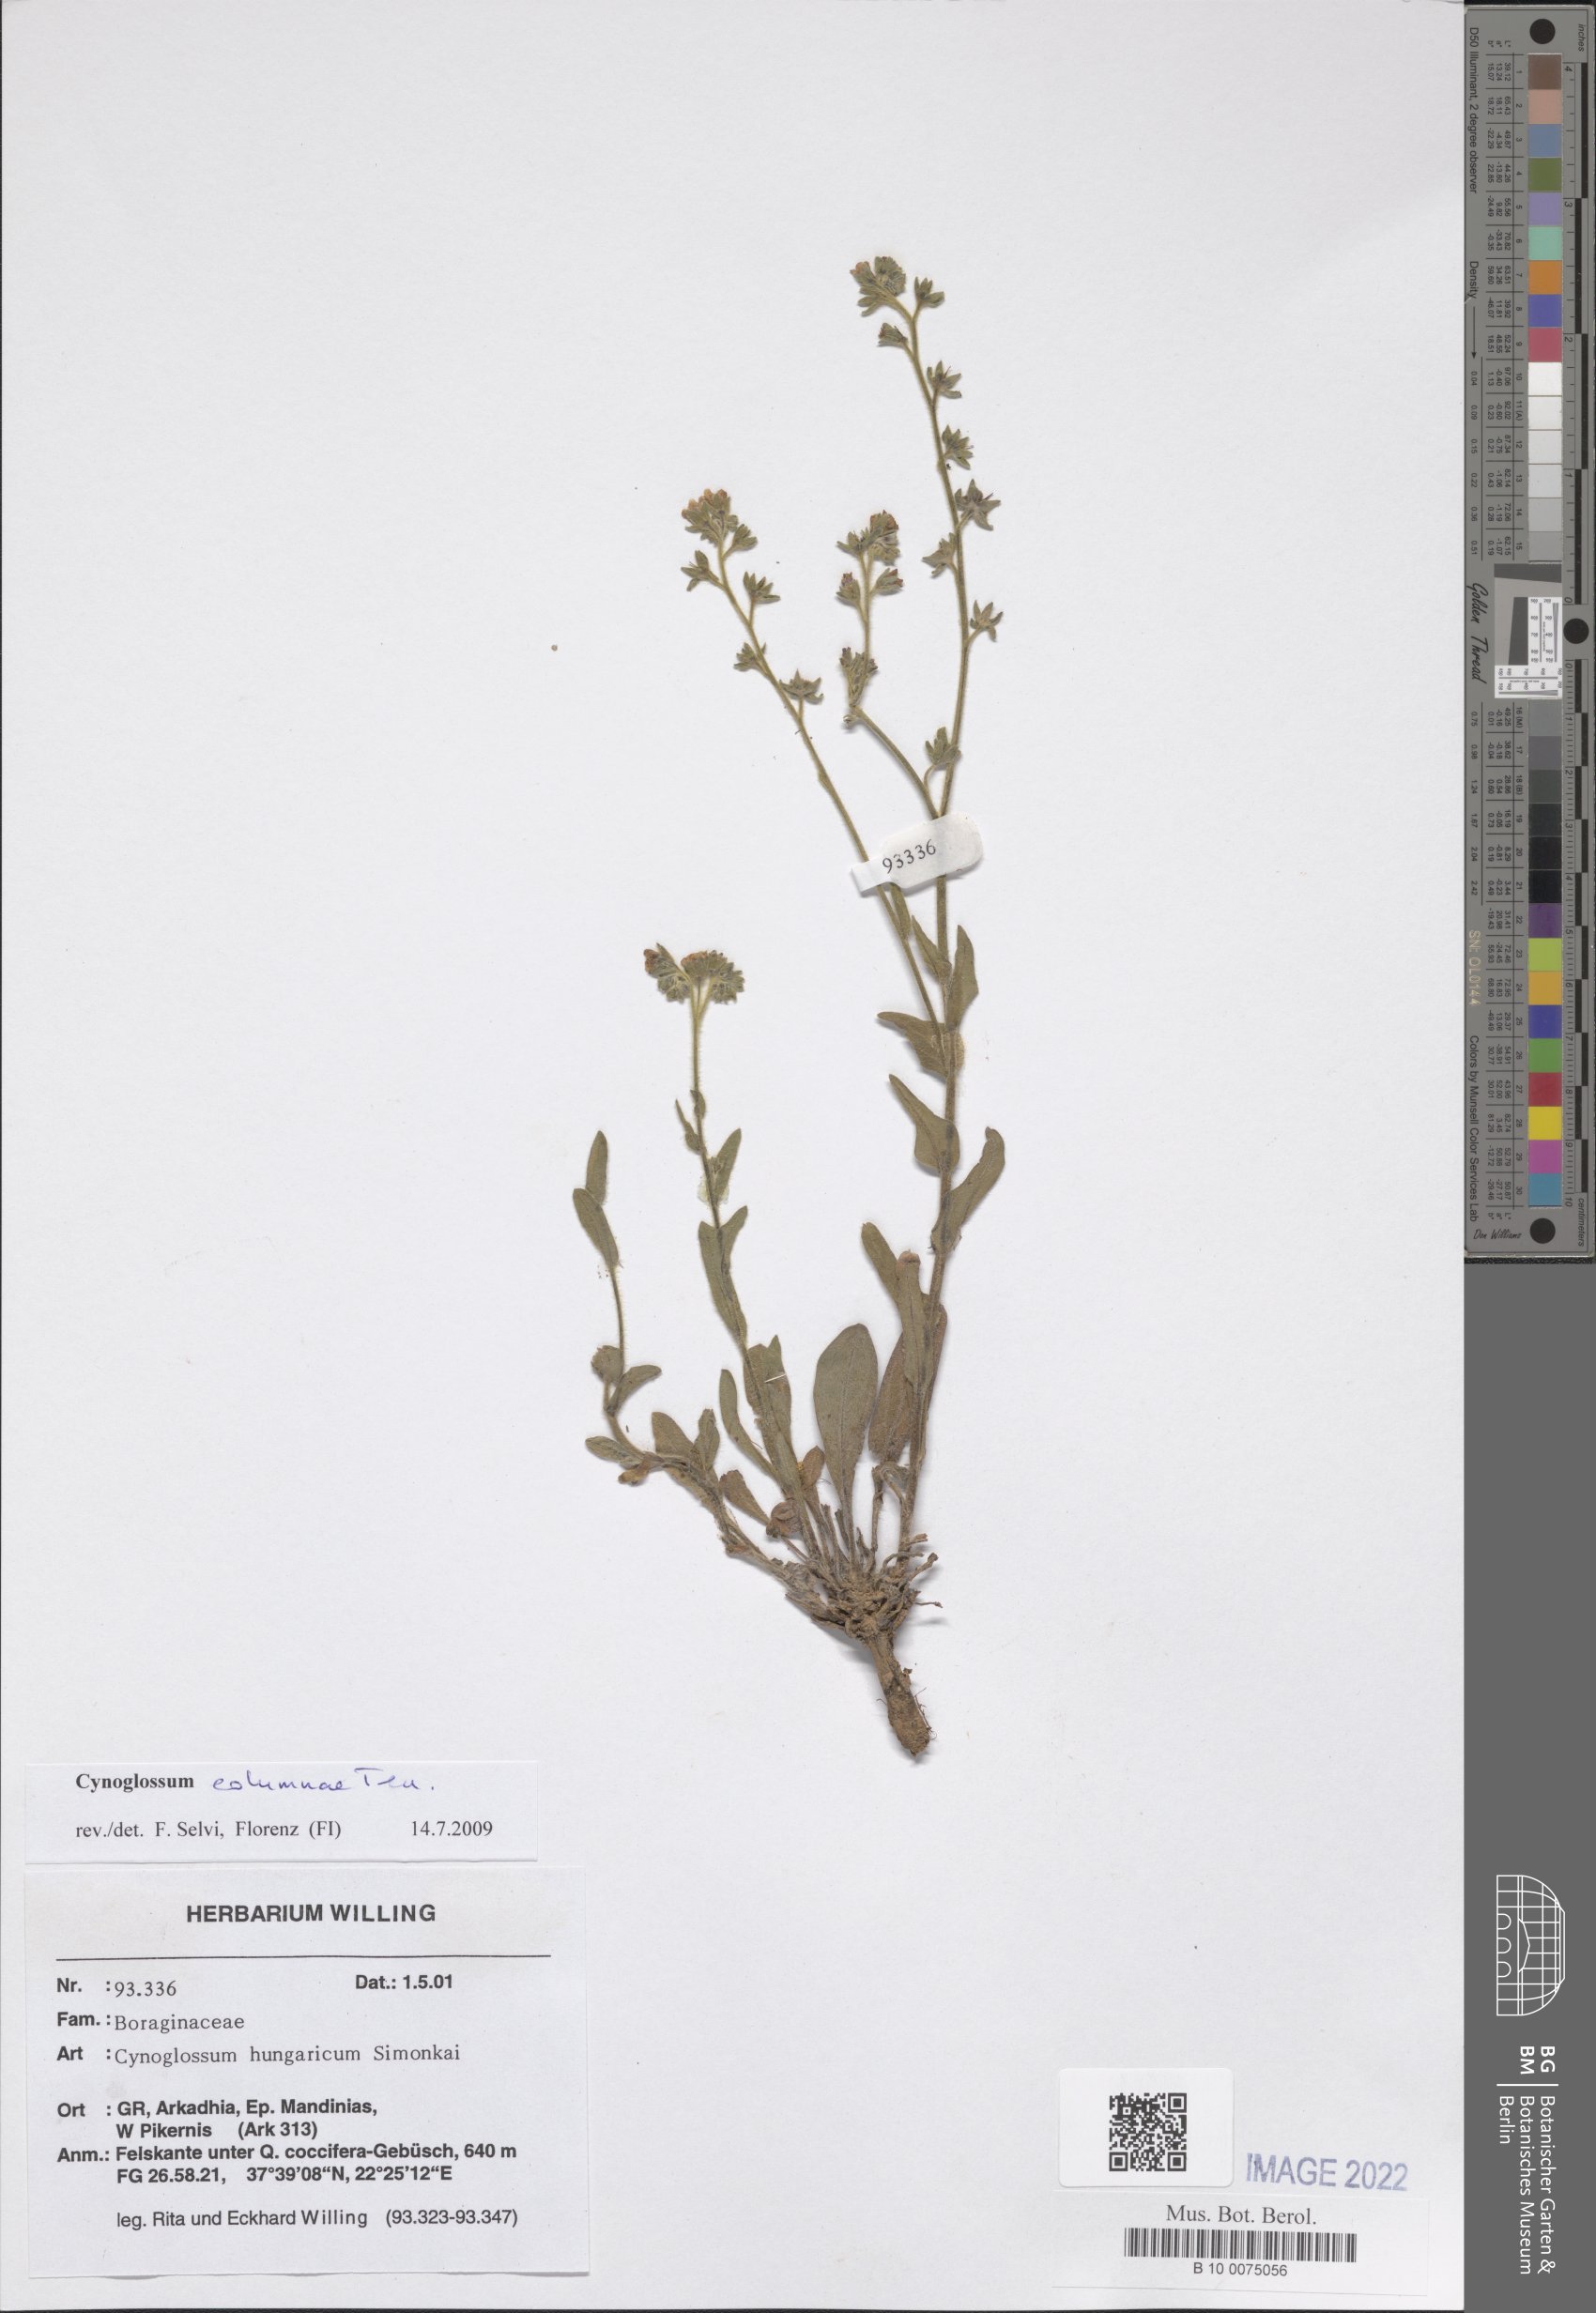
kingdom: Plantae
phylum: Tracheophyta
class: Magnoliopsida
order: Boraginales
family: Boraginaceae
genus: Rindera
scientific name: Rindera columnae
